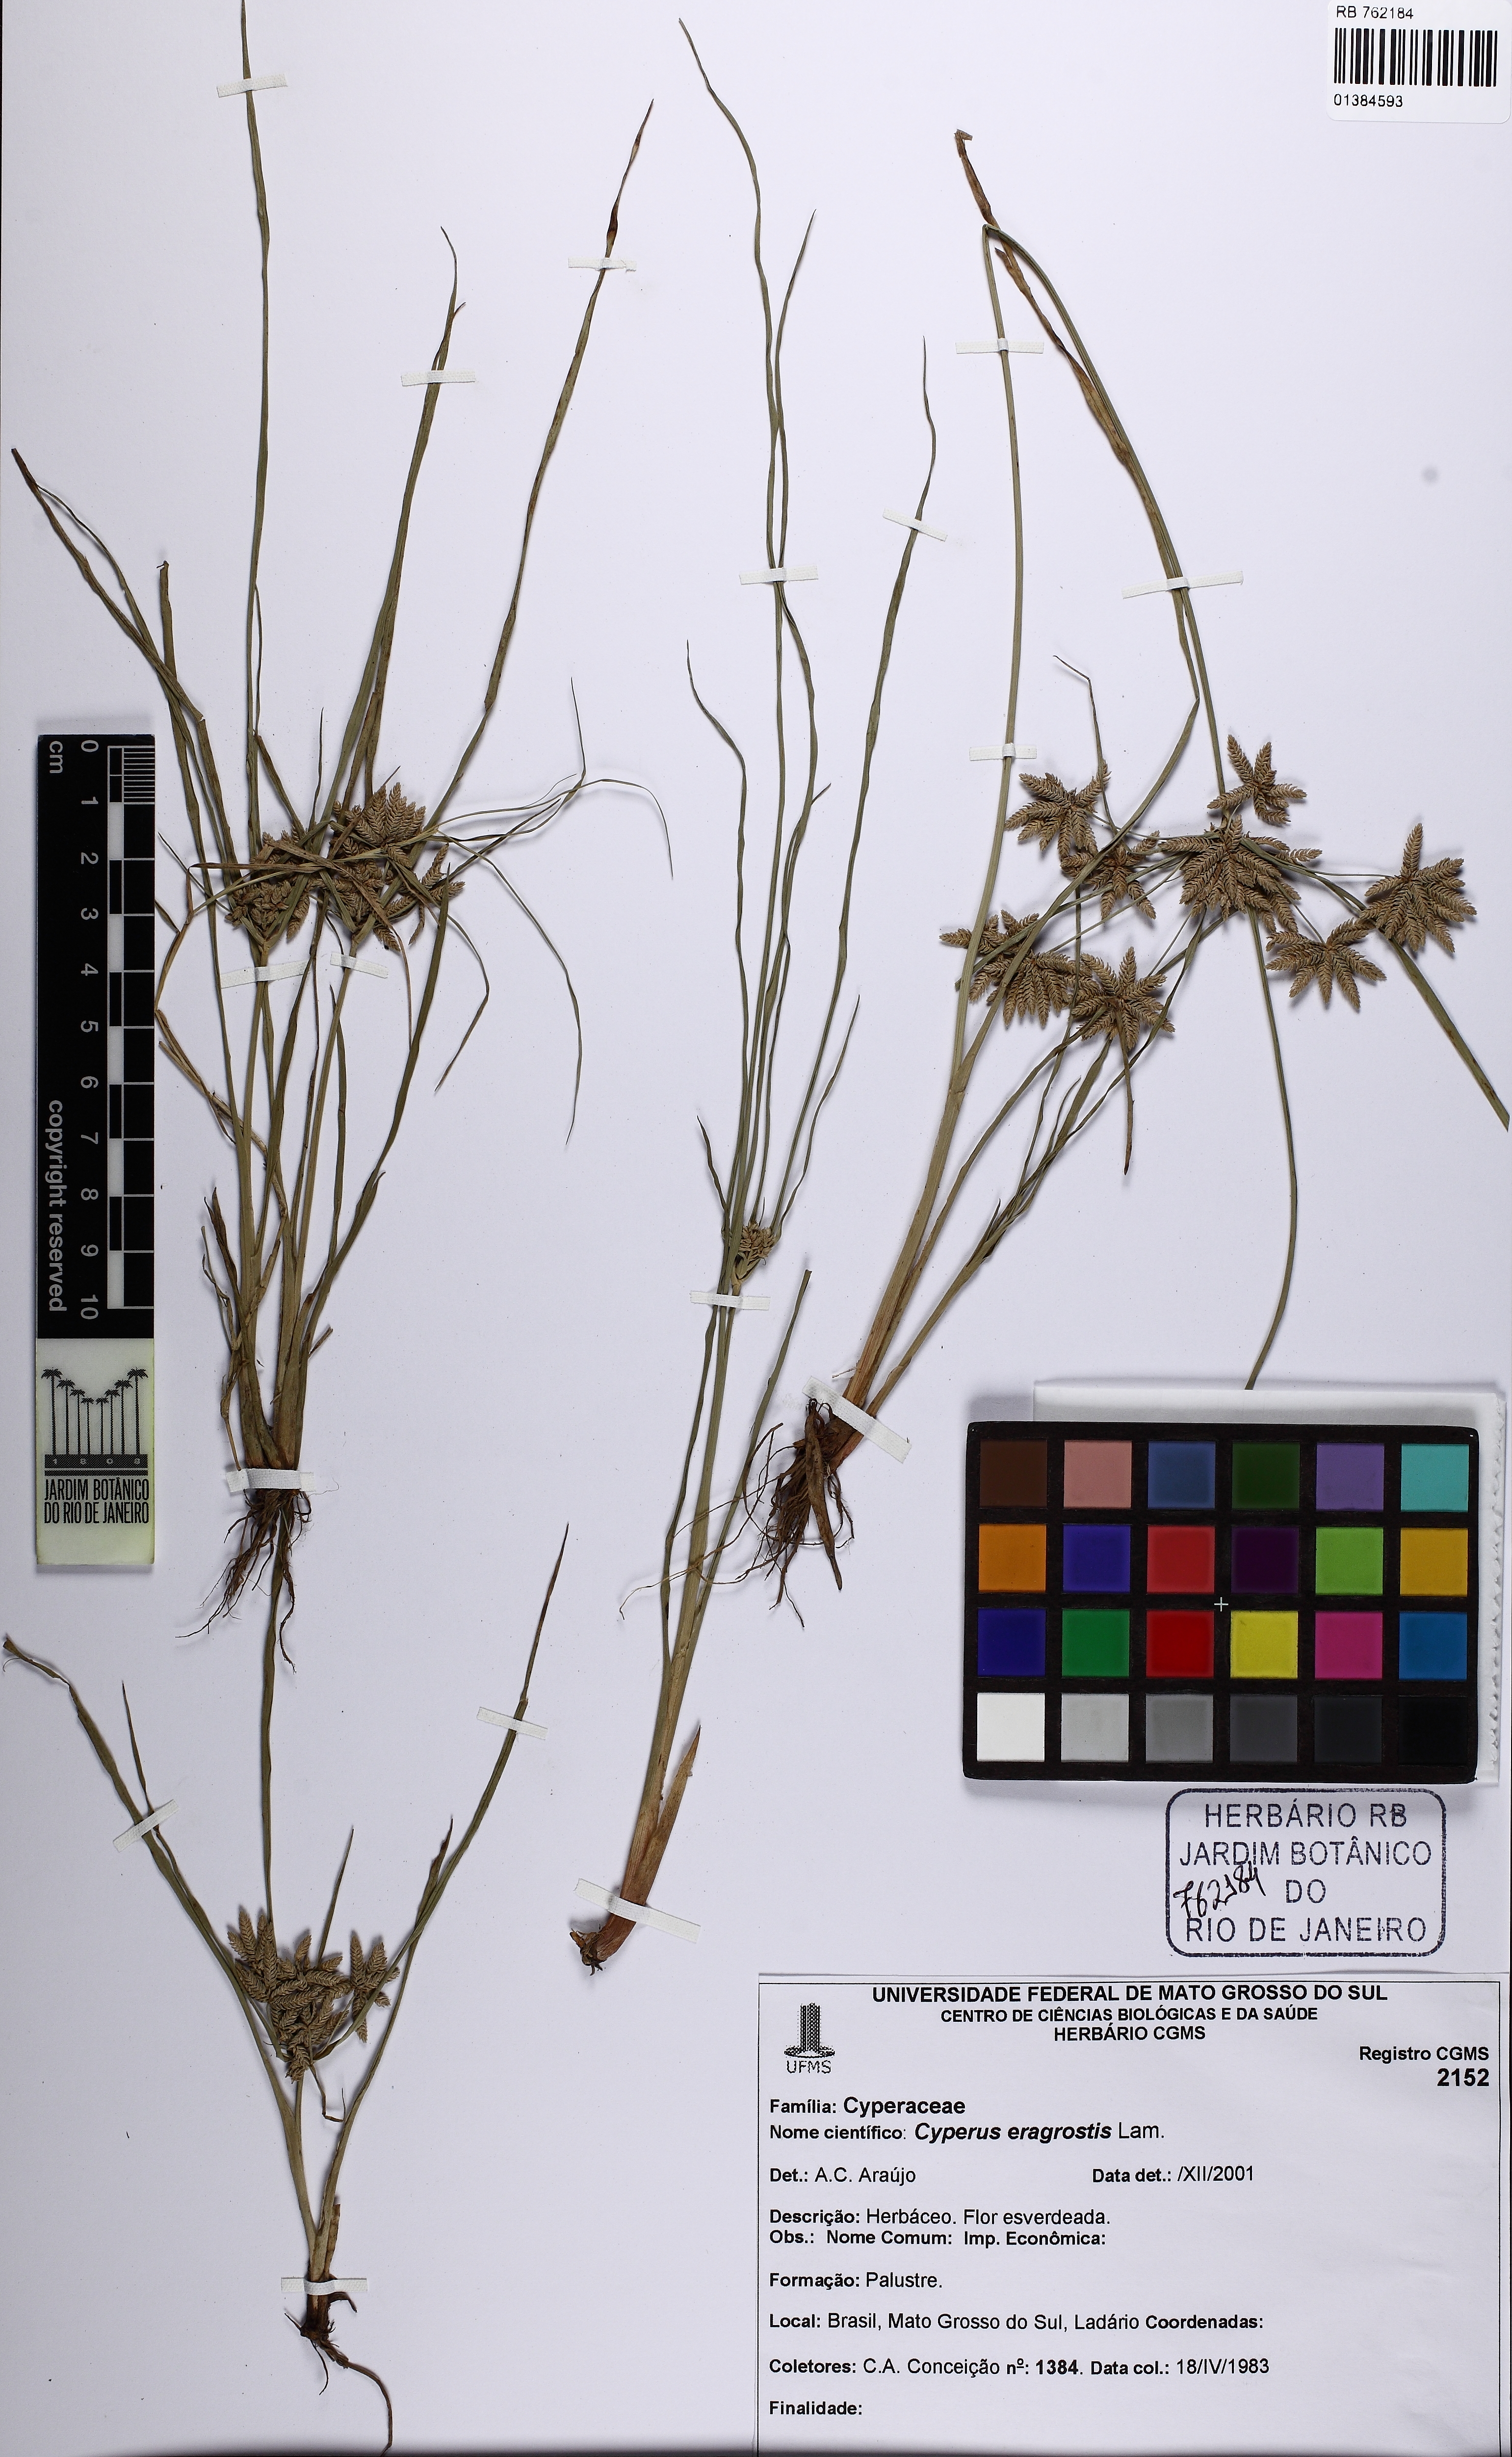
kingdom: Plantae
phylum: Tracheophyta
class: Liliopsida
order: Poales
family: Cyperaceae
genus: Cyperus
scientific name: Cyperus ochraceus
